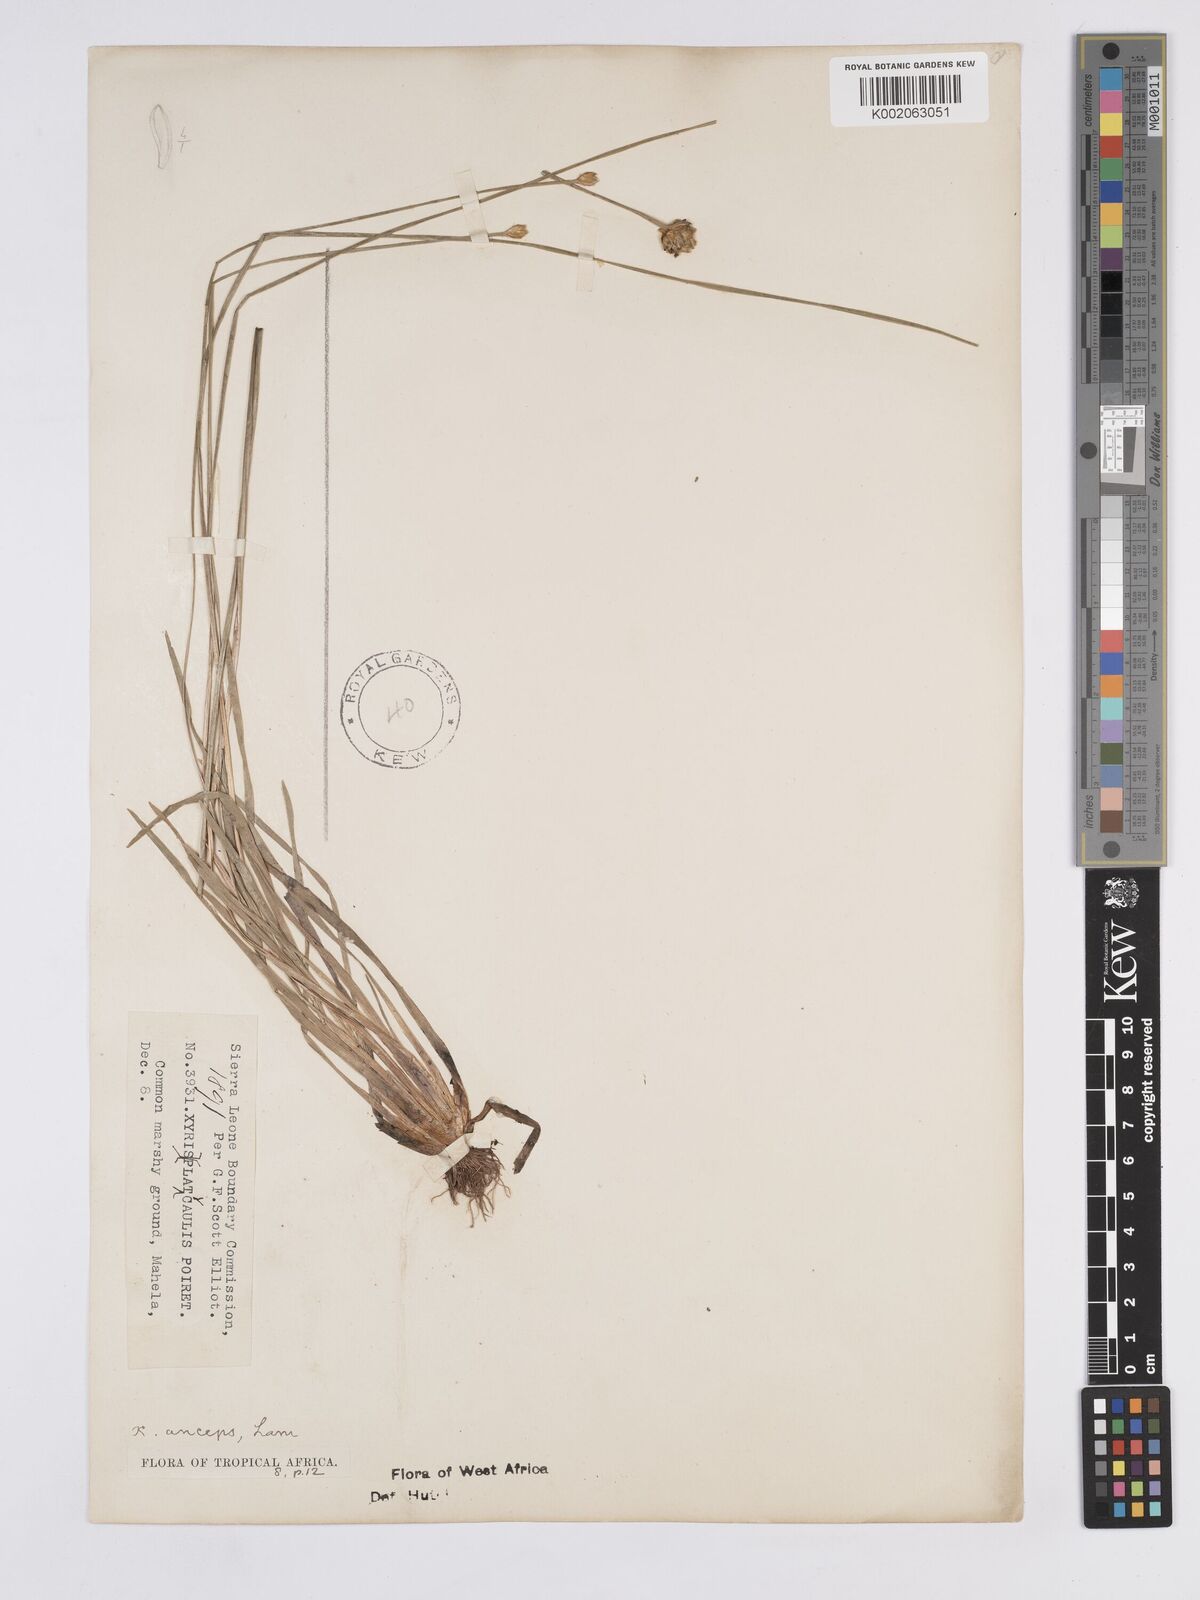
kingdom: Plantae
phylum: Tracheophyta
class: Liliopsida
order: Poales
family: Xyridaceae
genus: Xyris
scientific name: Xyris anceps
